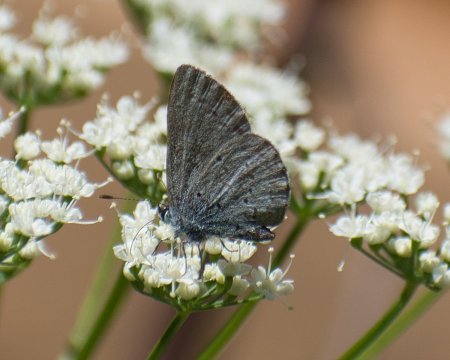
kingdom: Animalia
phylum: Arthropoda
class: Insecta
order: Lepidoptera
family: Lycaenidae
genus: Celastrina
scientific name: Celastrina ladon
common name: Echo Azure
